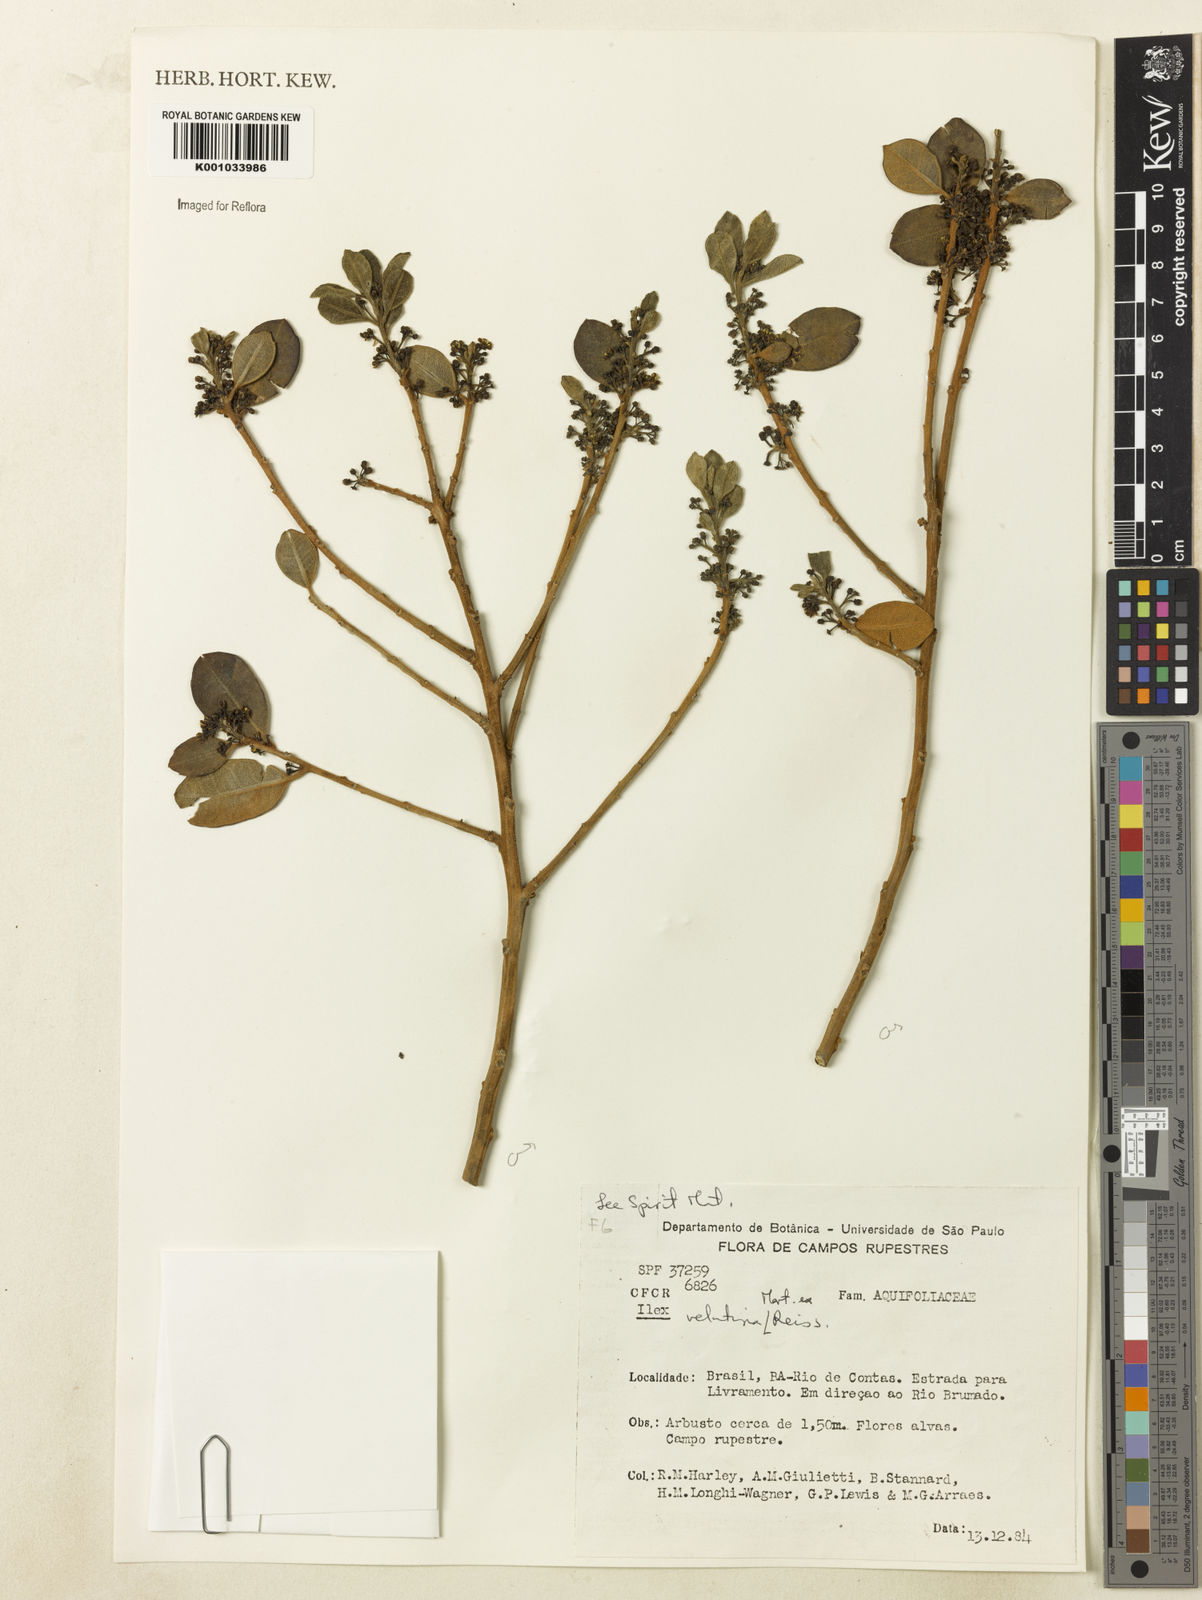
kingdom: Plantae
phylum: Tracheophyta
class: Magnoliopsida
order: Aquifoliales
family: Aquifoliaceae
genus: Ilex
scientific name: Ilex velutina
